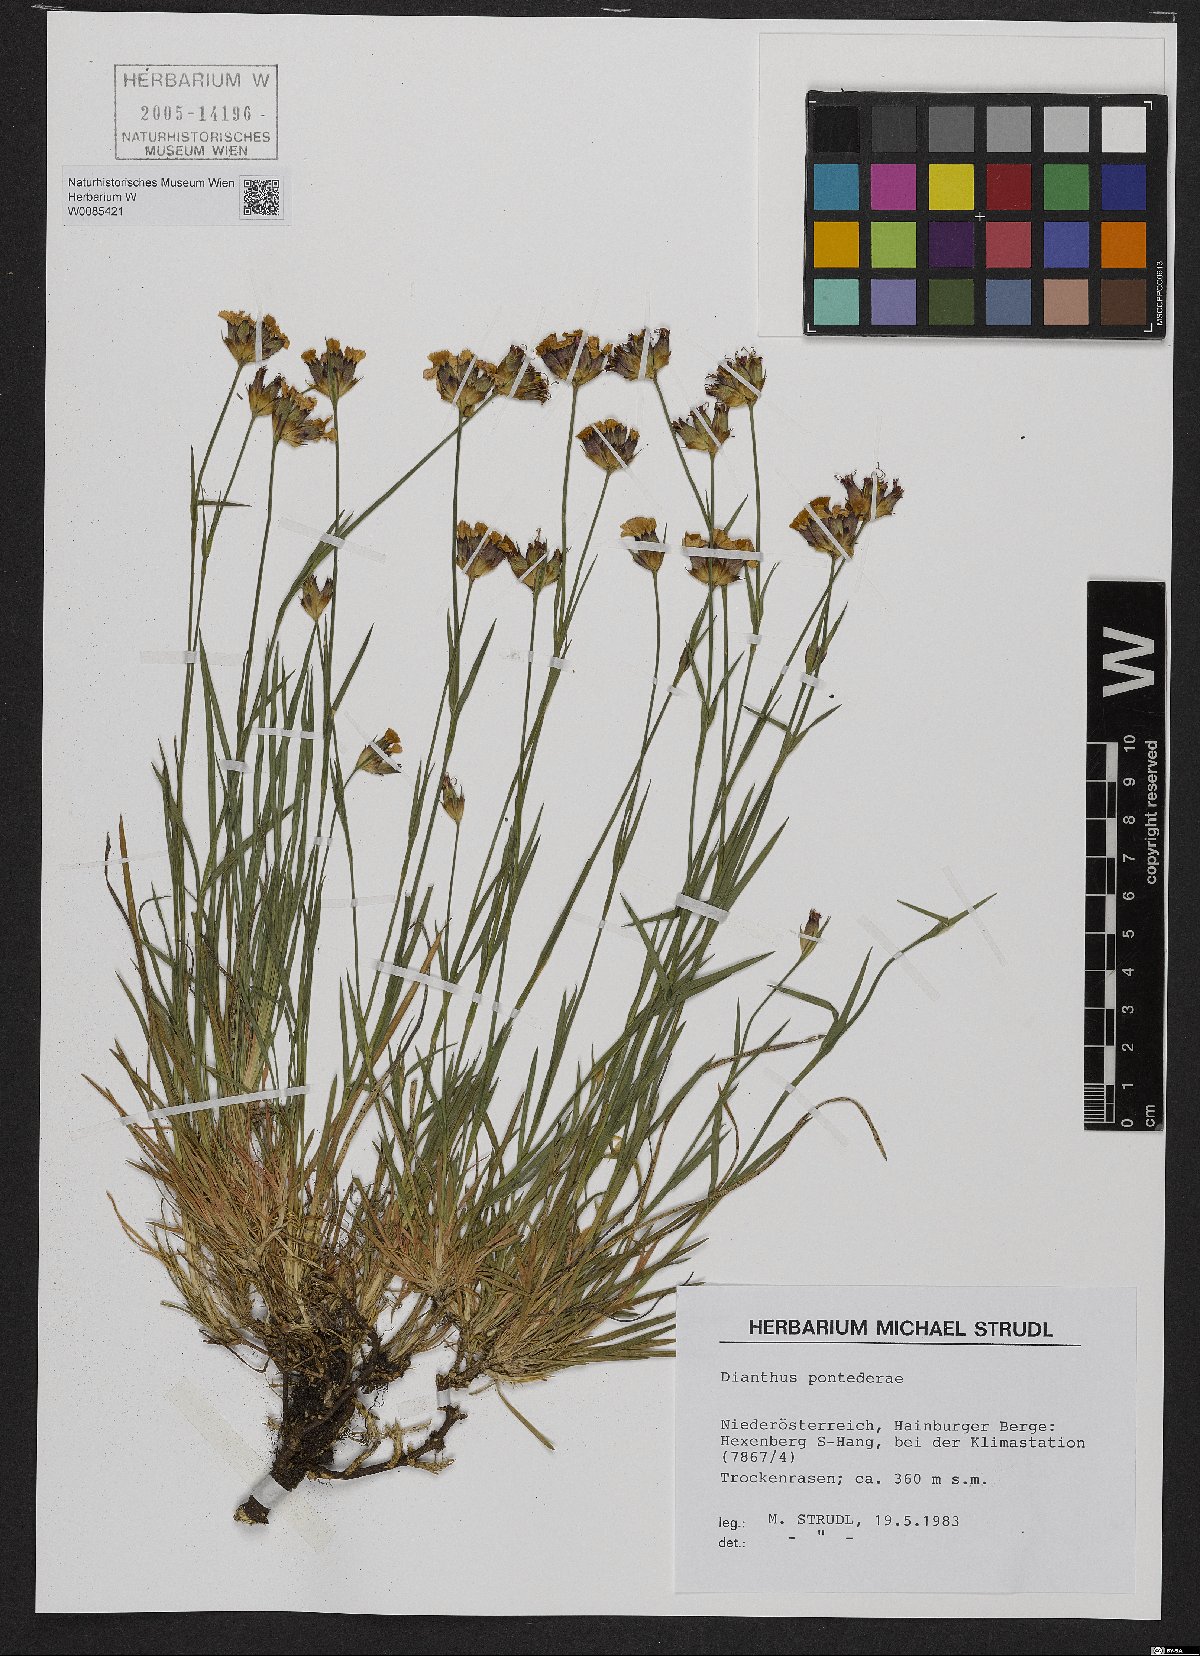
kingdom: Plantae
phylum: Tracheophyta
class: Magnoliopsida
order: Caryophyllales
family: Caryophyllaceae
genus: Dianthus
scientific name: Dianthus pontederae
